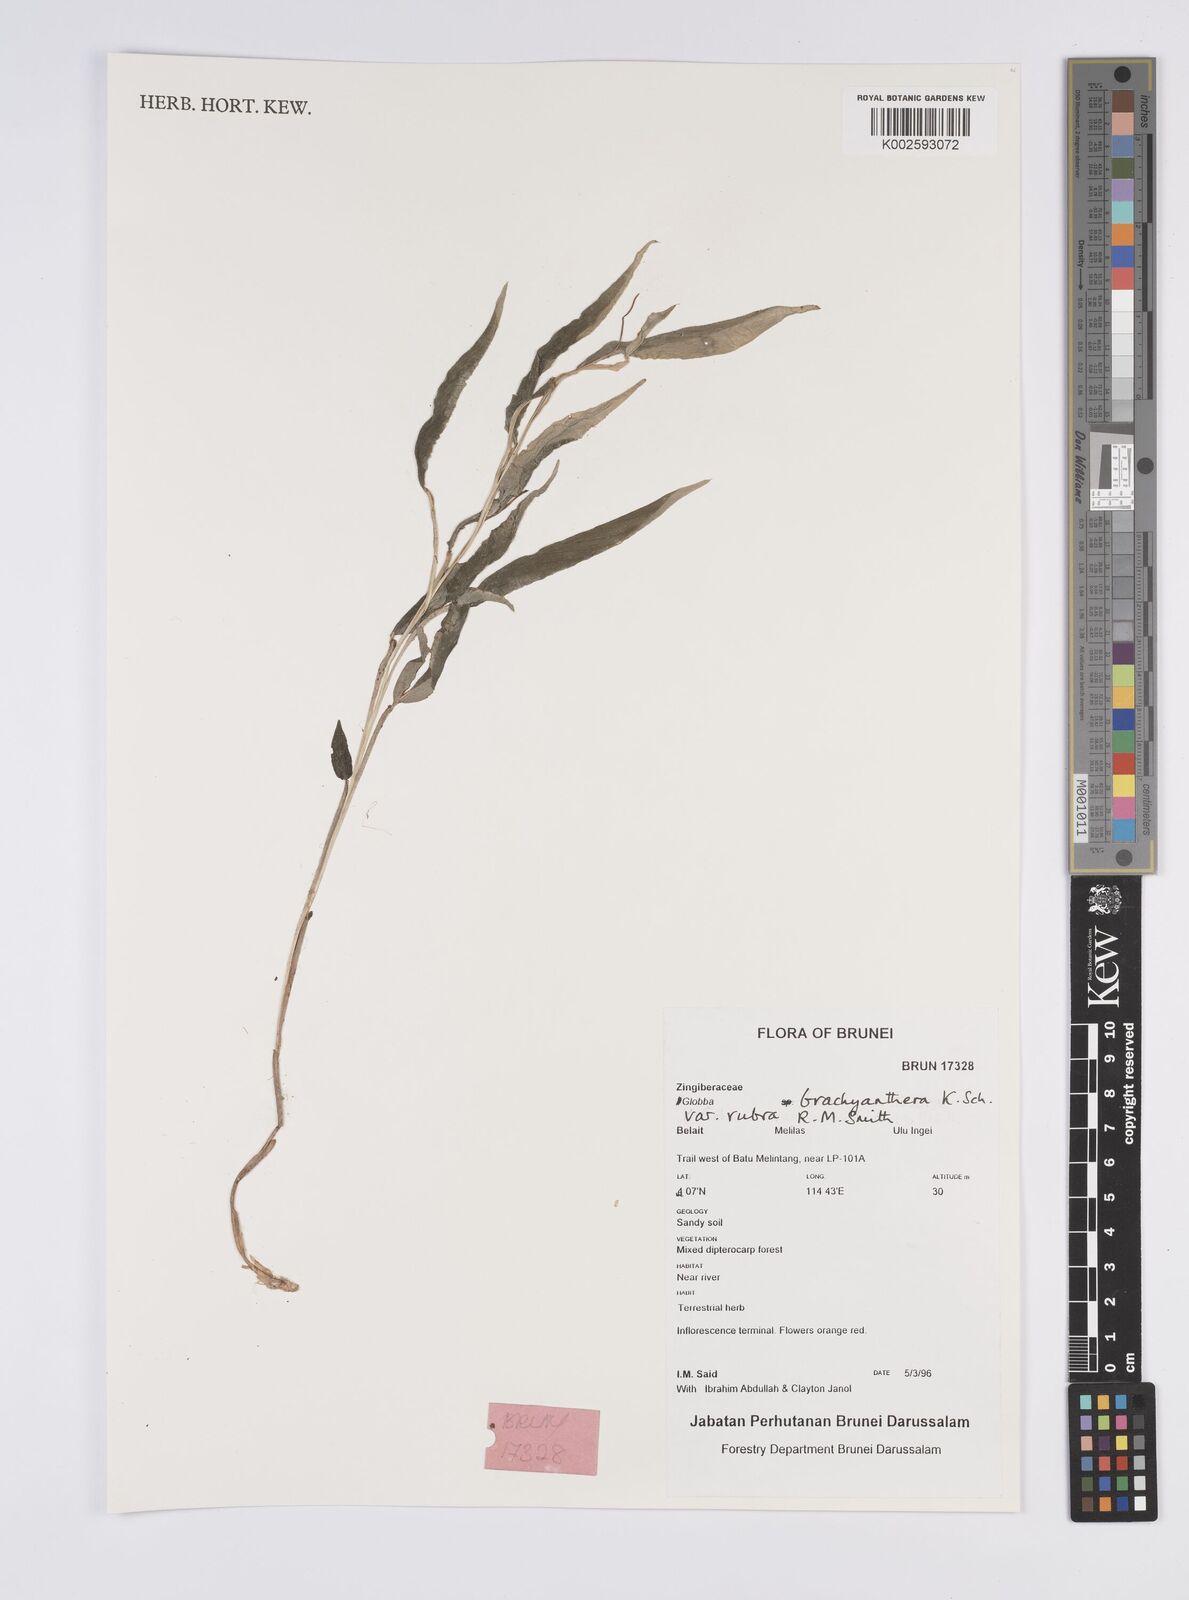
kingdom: Plantae
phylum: Tracheophyta
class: Liliopsida
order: Zingiberales
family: Zingiberaceae
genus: Globba
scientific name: Globba brachyanthera
